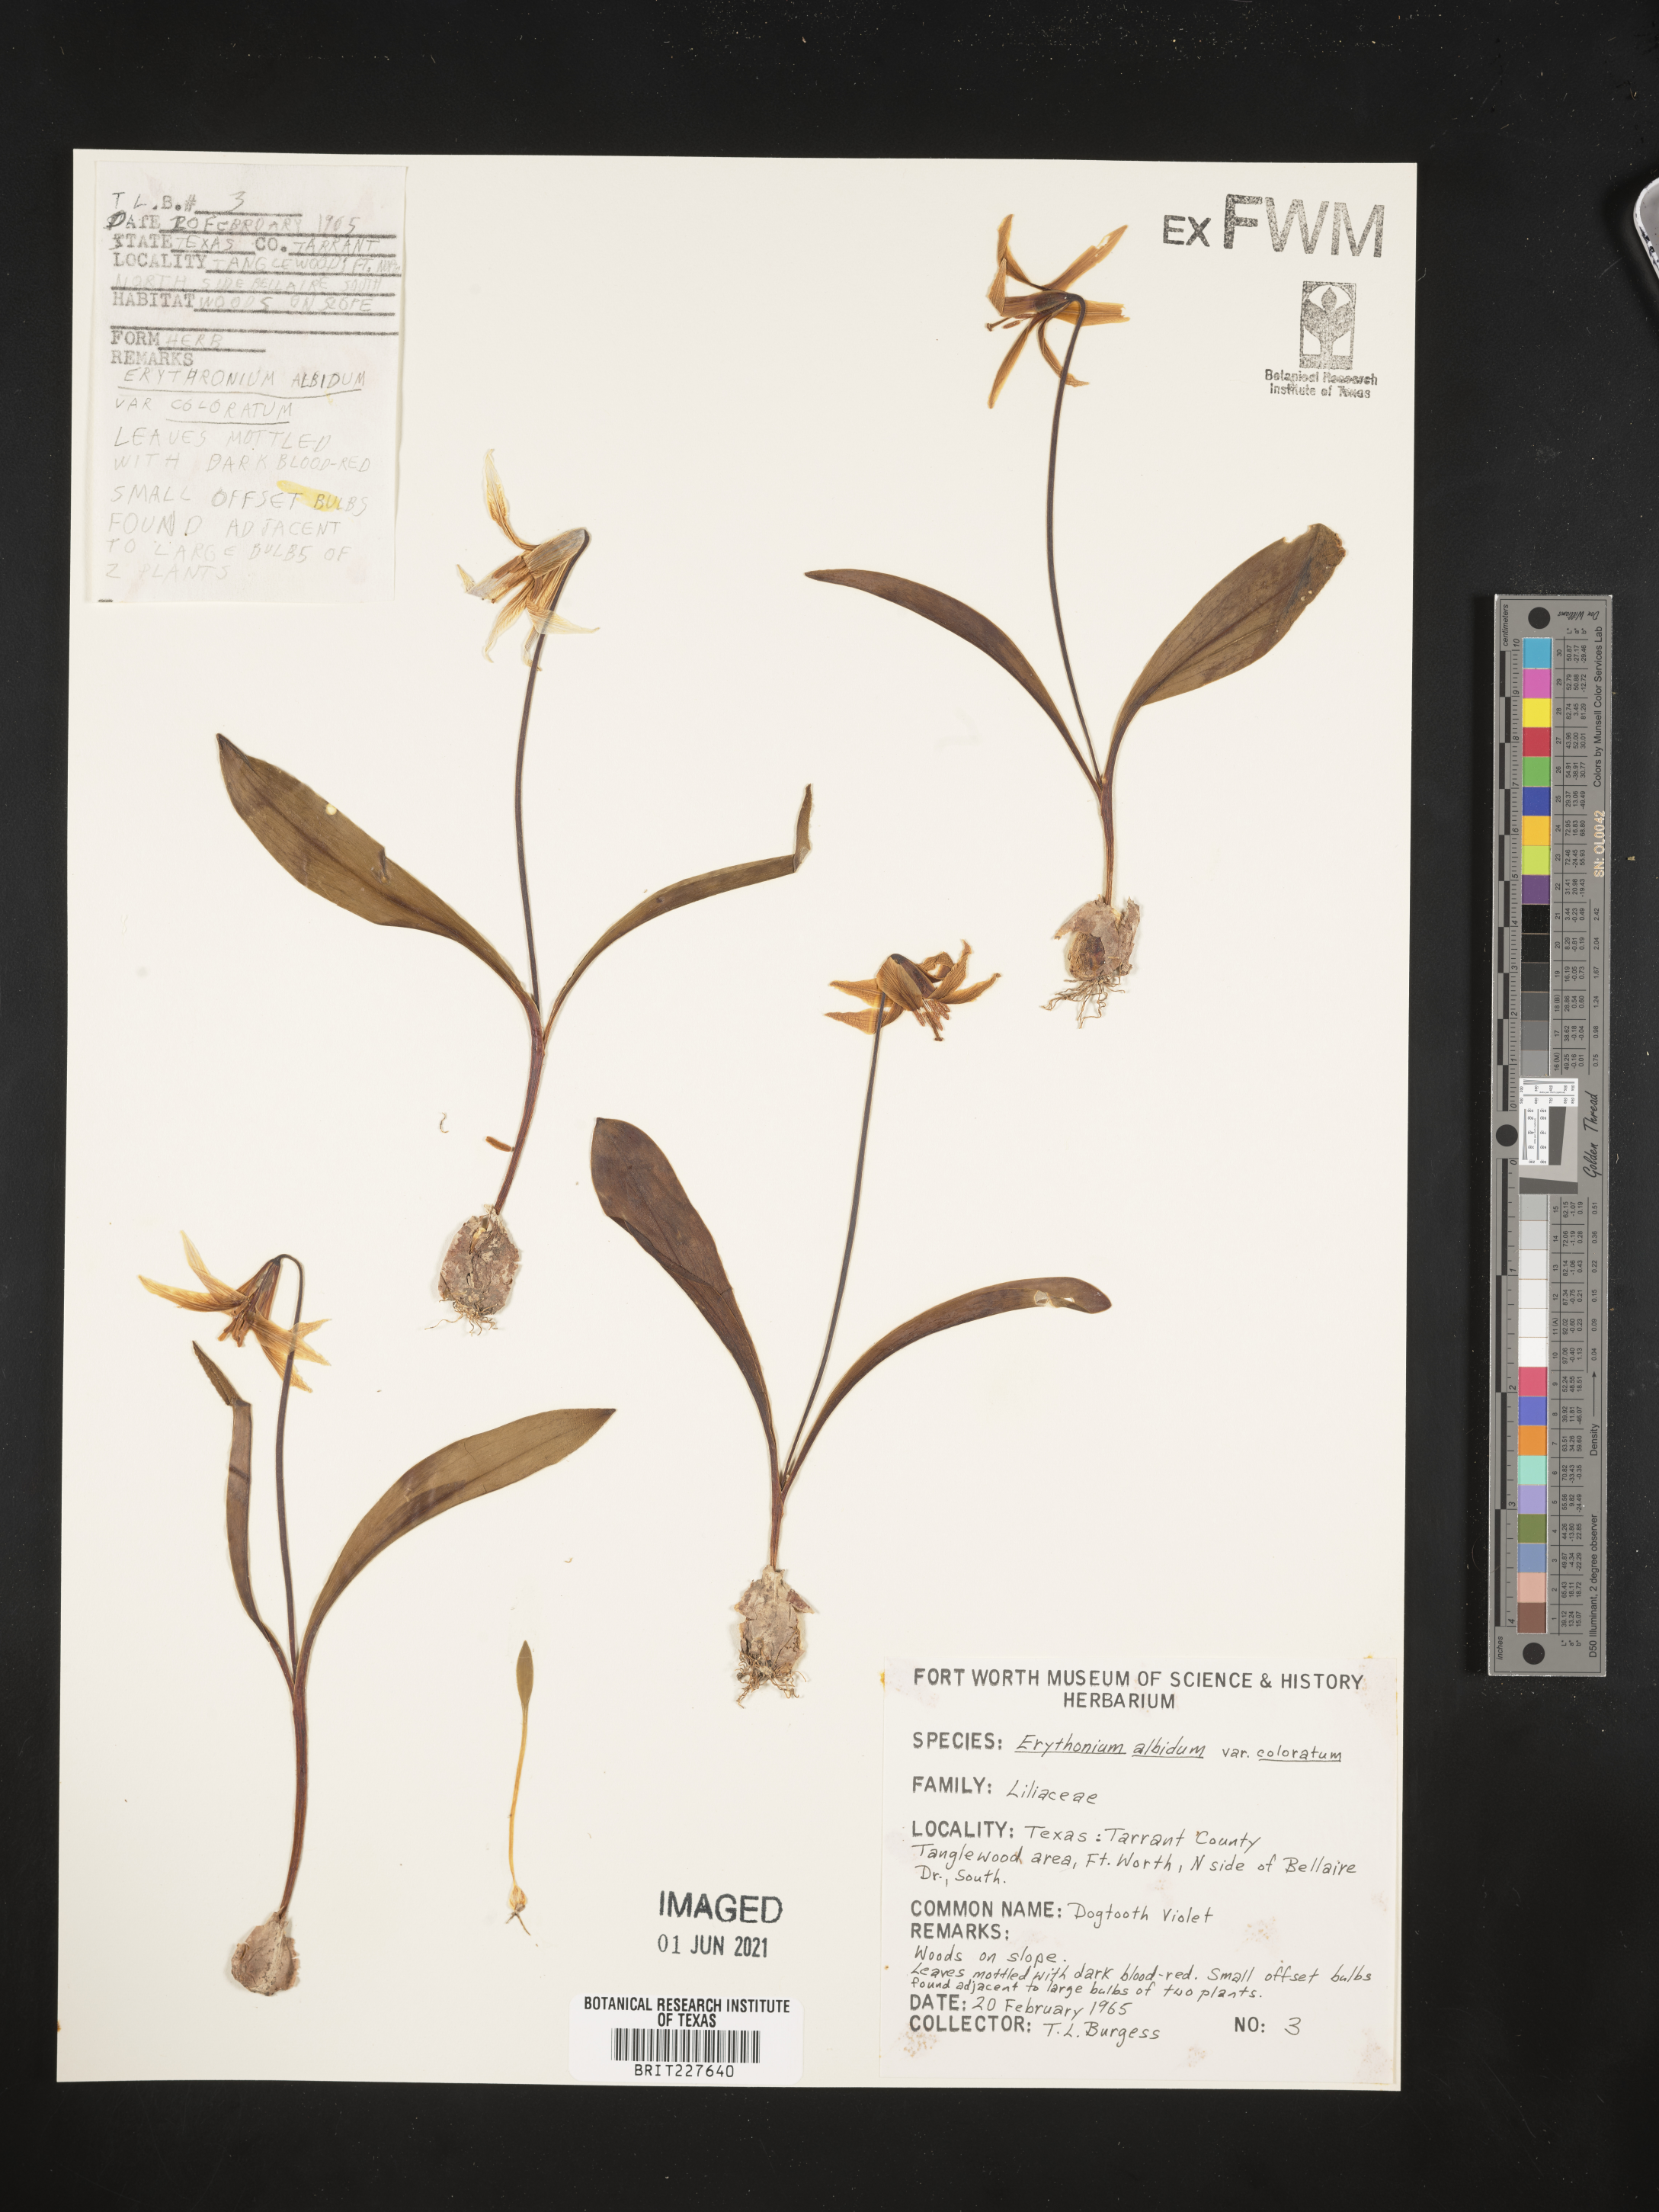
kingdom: Plantae
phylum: Tracheophyta
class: Liliopsida
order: Liliales
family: Liliaceae
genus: Erythronium
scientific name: Erythronium albidum
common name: White trout-lily
